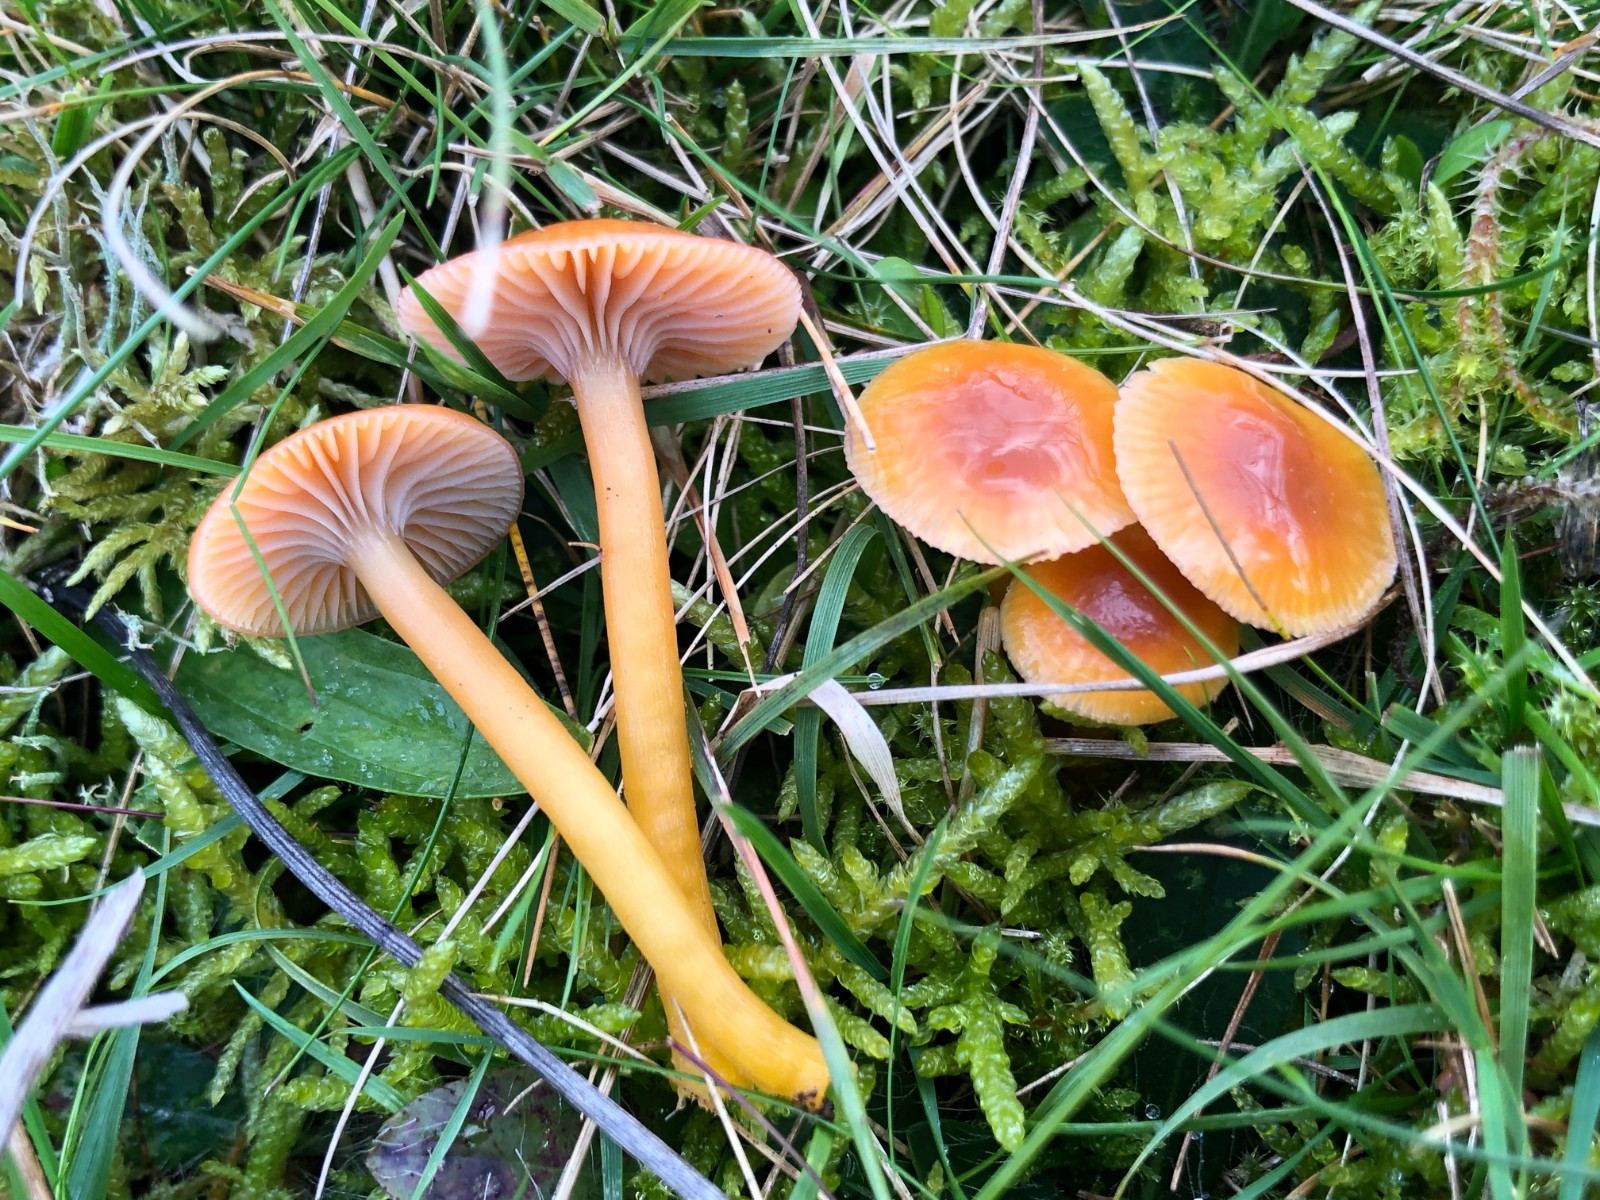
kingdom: Fungi
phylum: Basidiomycota
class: Agaricomycetes
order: Agaricales
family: Hygrophoraceae
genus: Gliophorus
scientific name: Gliophorus laetus
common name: brusk-vokshat
